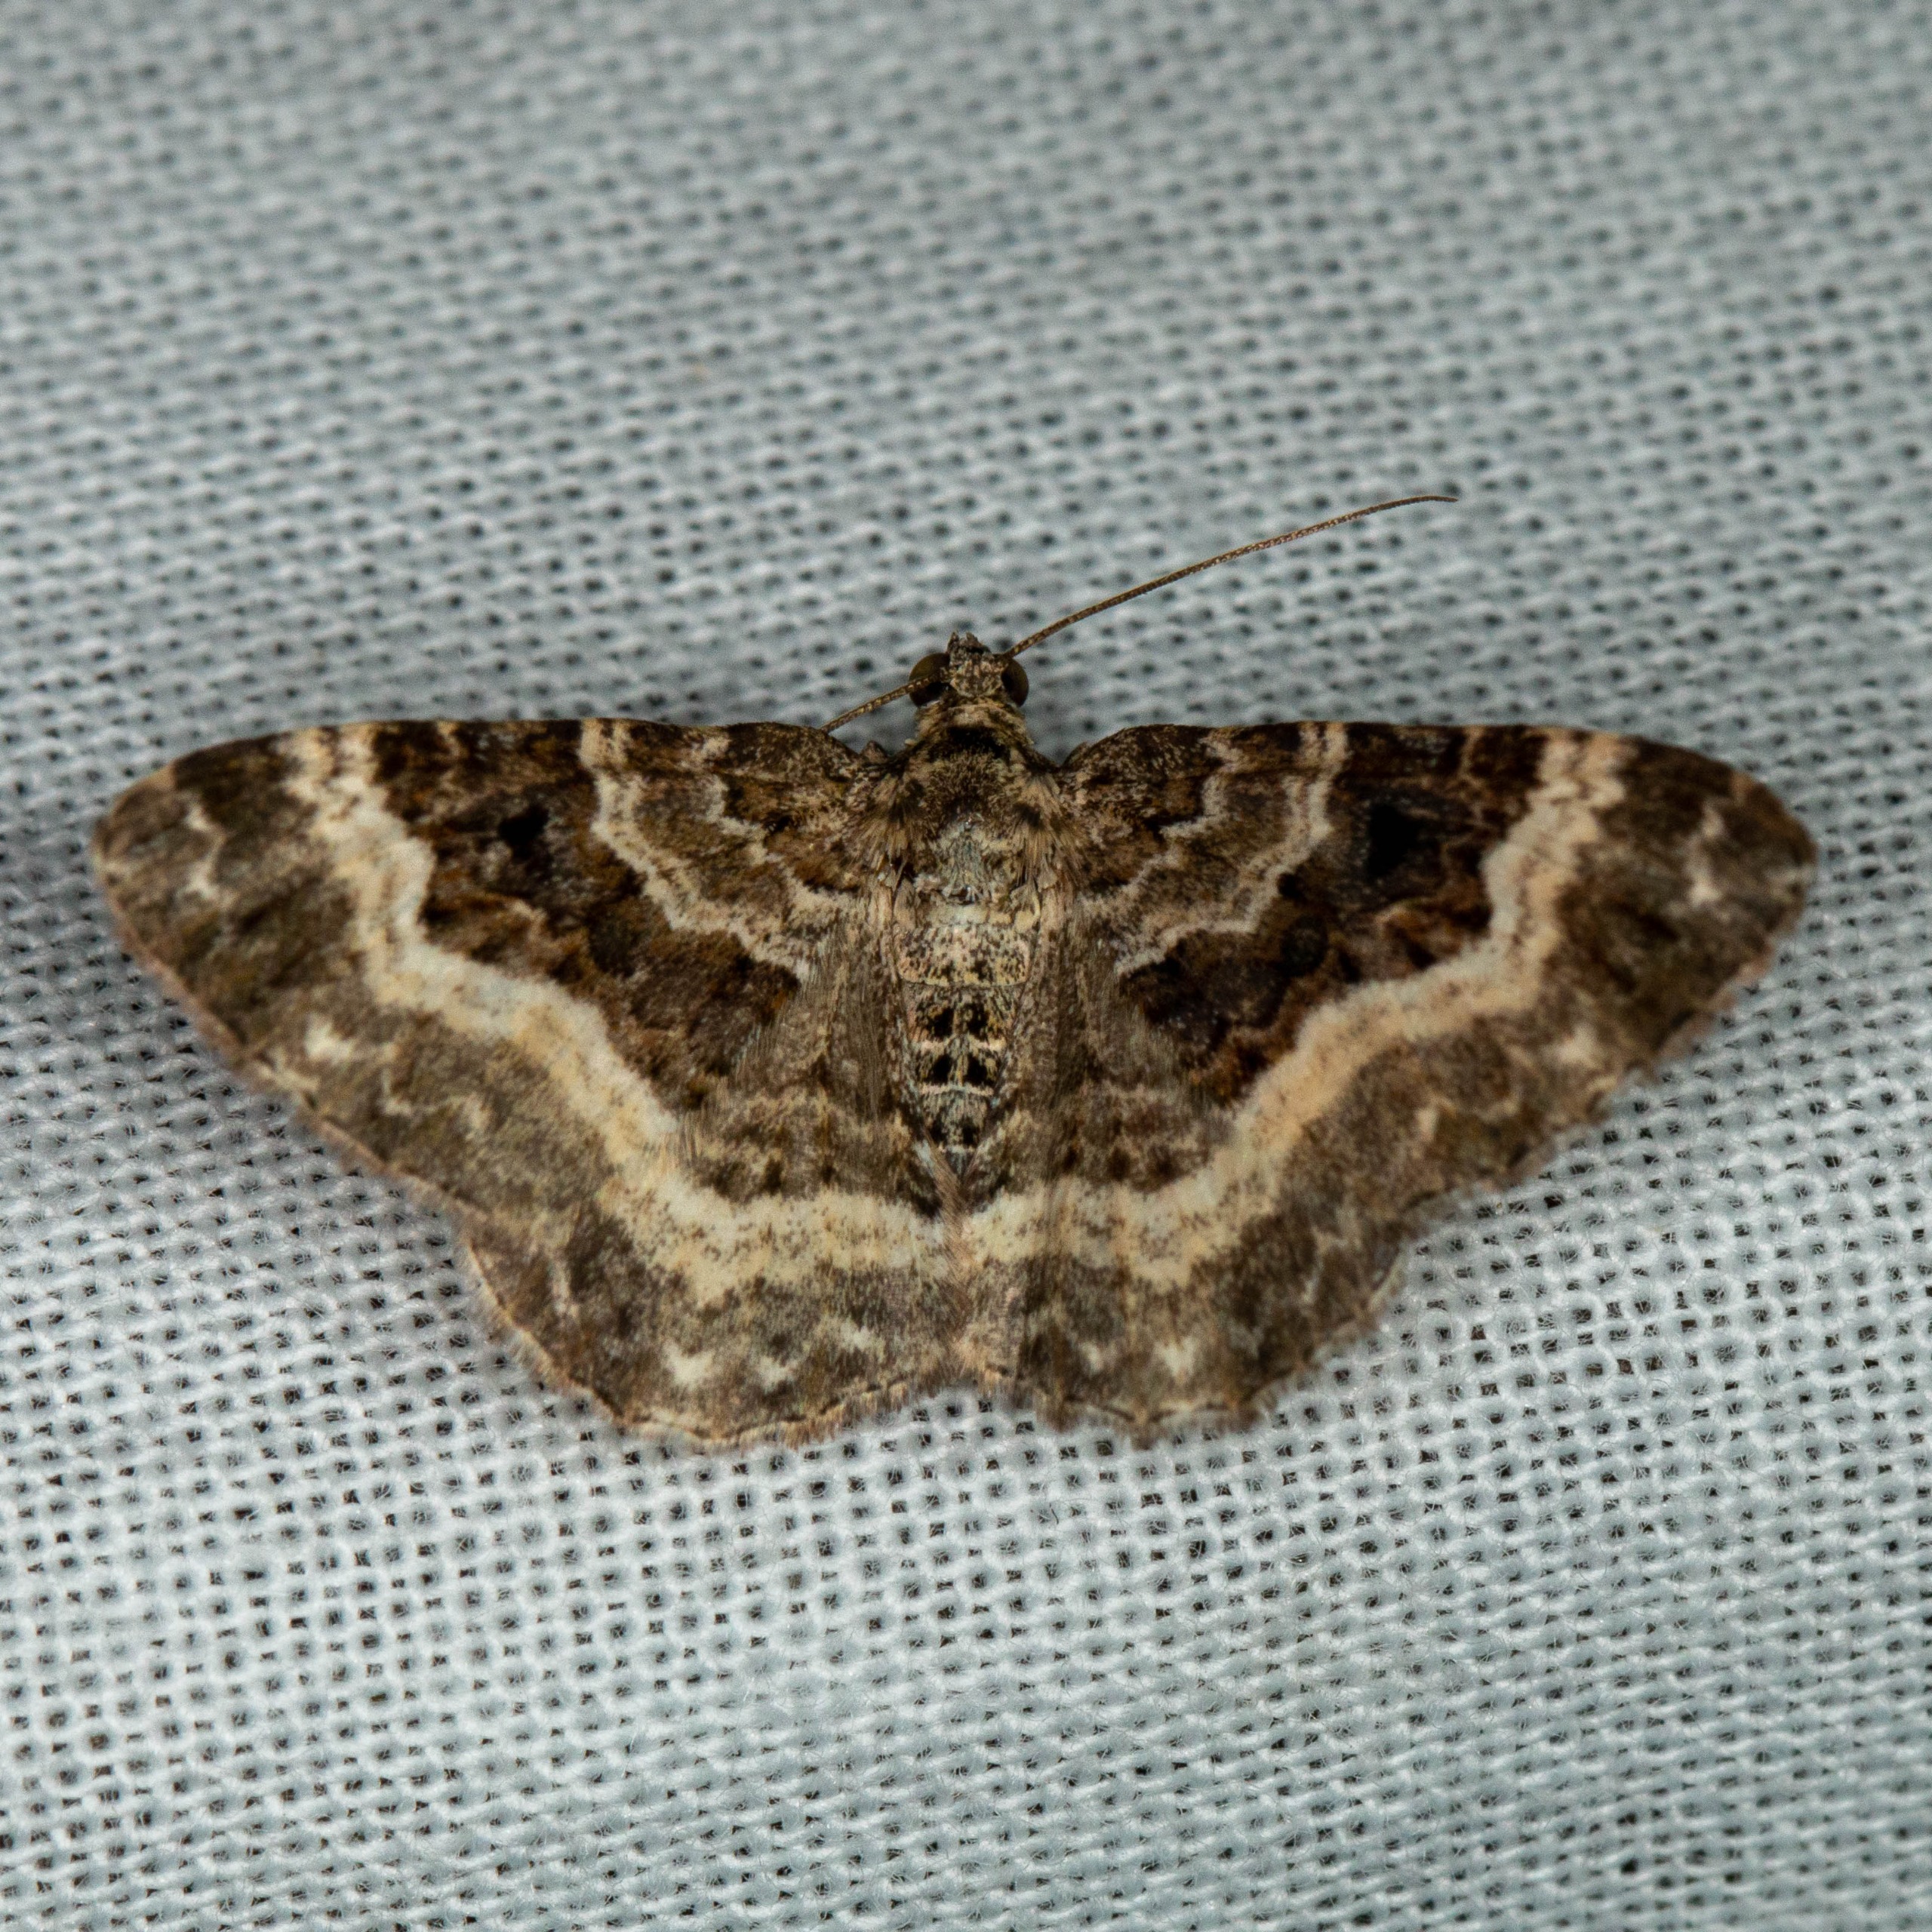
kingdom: Animalia
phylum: Arthropoda
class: Insecta
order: Lepidoptera
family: Geometridae
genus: Epirrhoe
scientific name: Epirrhoe alternata
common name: Almindelig bladmåler
